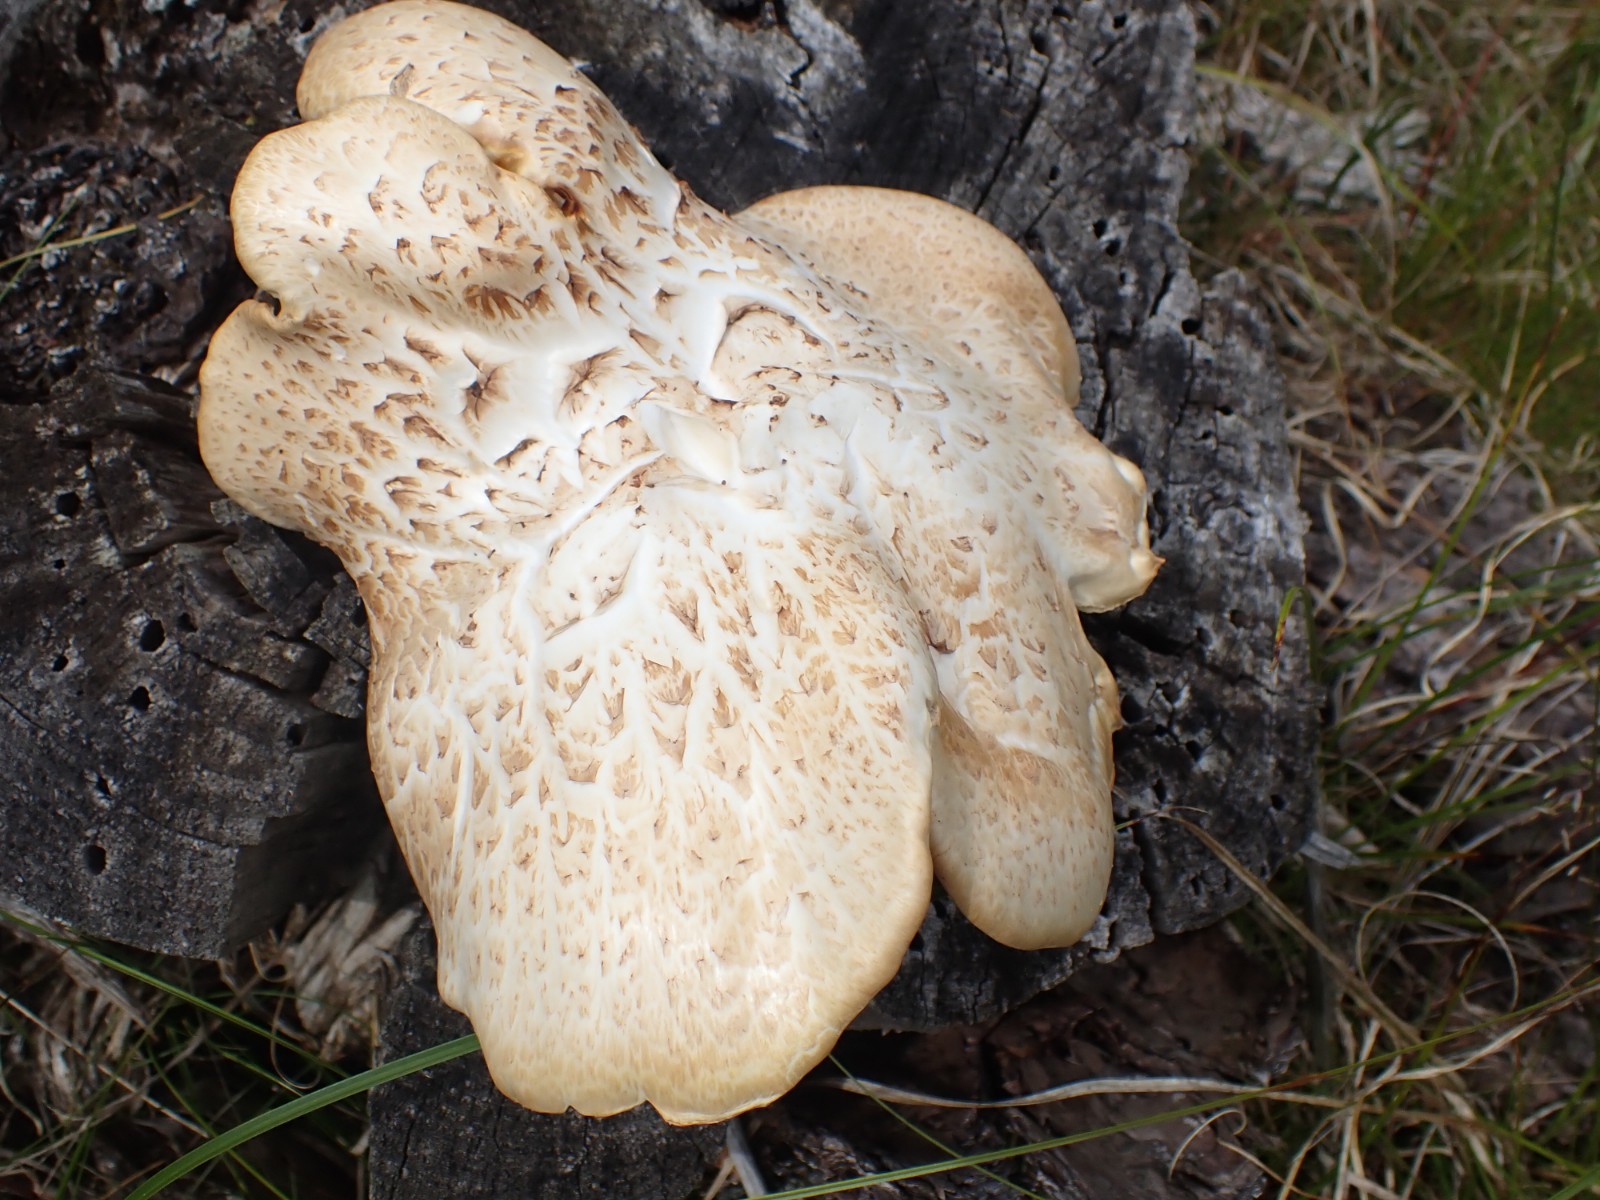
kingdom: Fungi
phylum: Basidiomycota
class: Agaricomycetes
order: Gloeophyllales
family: Gloeophyllaceae
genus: Neolentinus
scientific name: Neolentinus lepideus
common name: skællet sejhat
